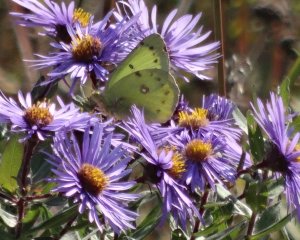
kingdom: Animalia
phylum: Arthropoda
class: Insecta
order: Lepidoptera
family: Pieridae
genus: Colias
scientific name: Colias philodice
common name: Clouded Sulphur
